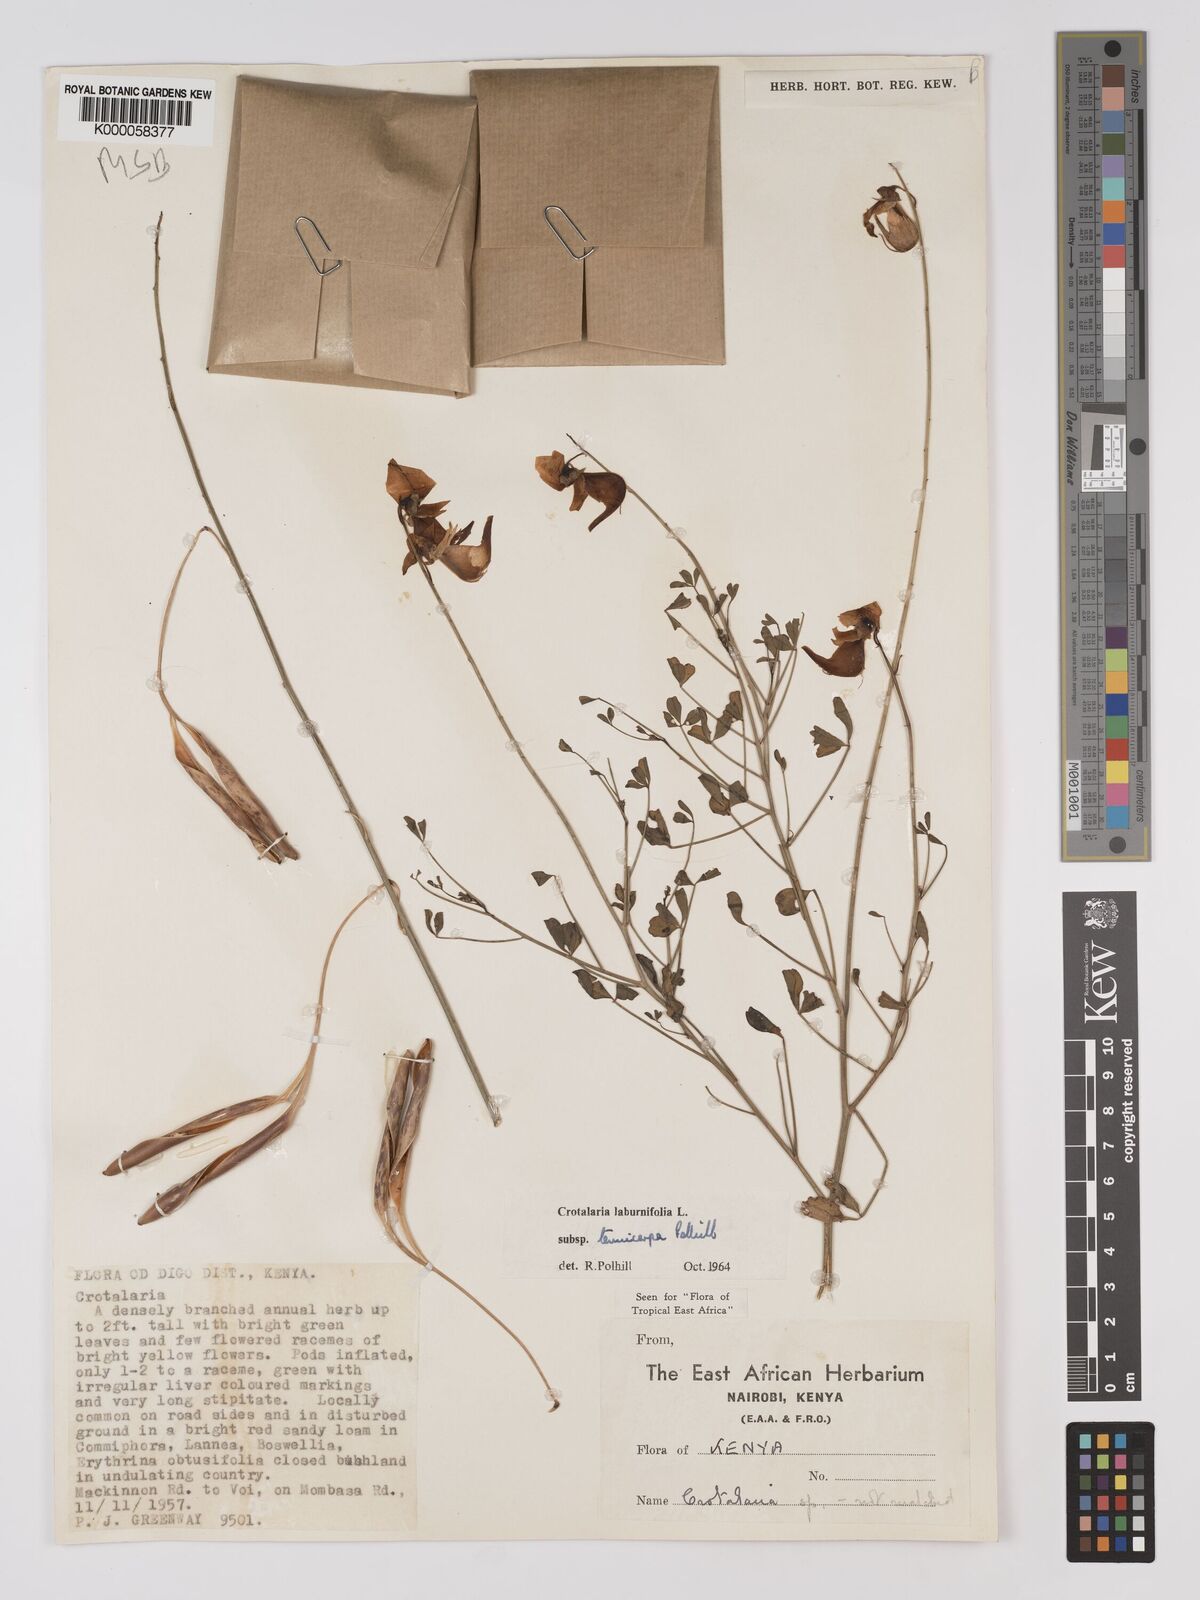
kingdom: Plantae
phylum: Tracheophyta
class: Magnoliopsida
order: Fabales
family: Fabaceae
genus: Crotalaria
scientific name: Crotalaria laburnifolia
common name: Birdflower
